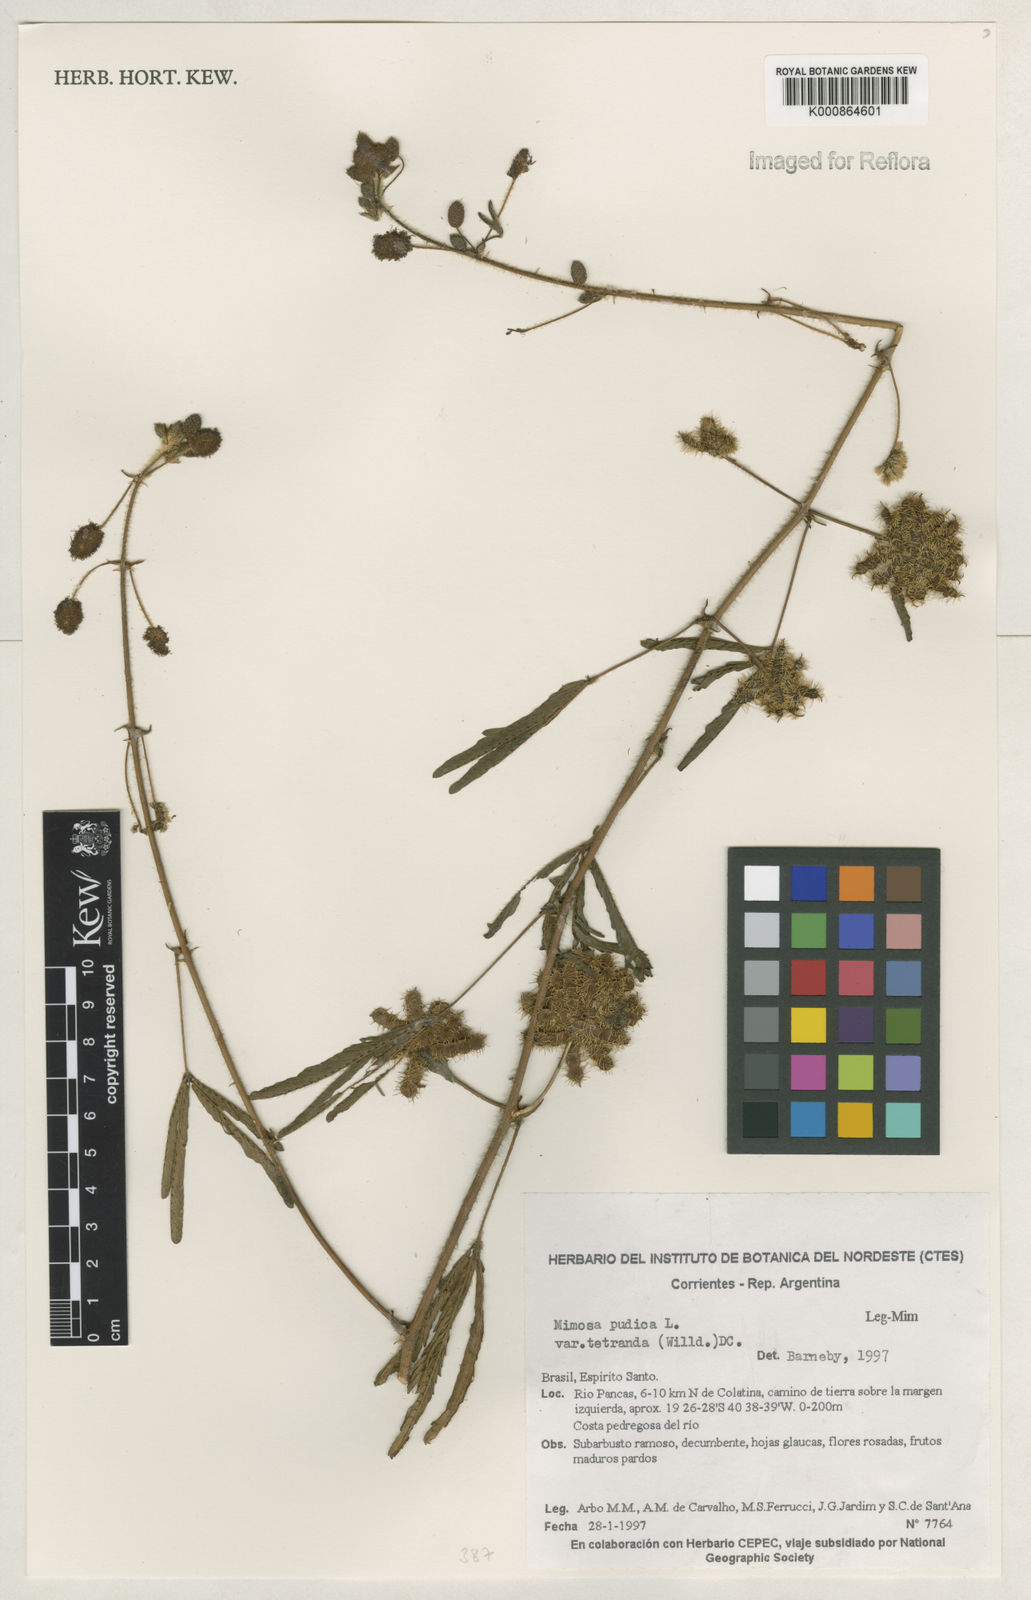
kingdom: Plantae
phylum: Tracheophyta
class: Magnoliopsida
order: Fabales
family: Fabaceae
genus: Mimosa
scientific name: Mimosa pudica
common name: Sensitive plant
